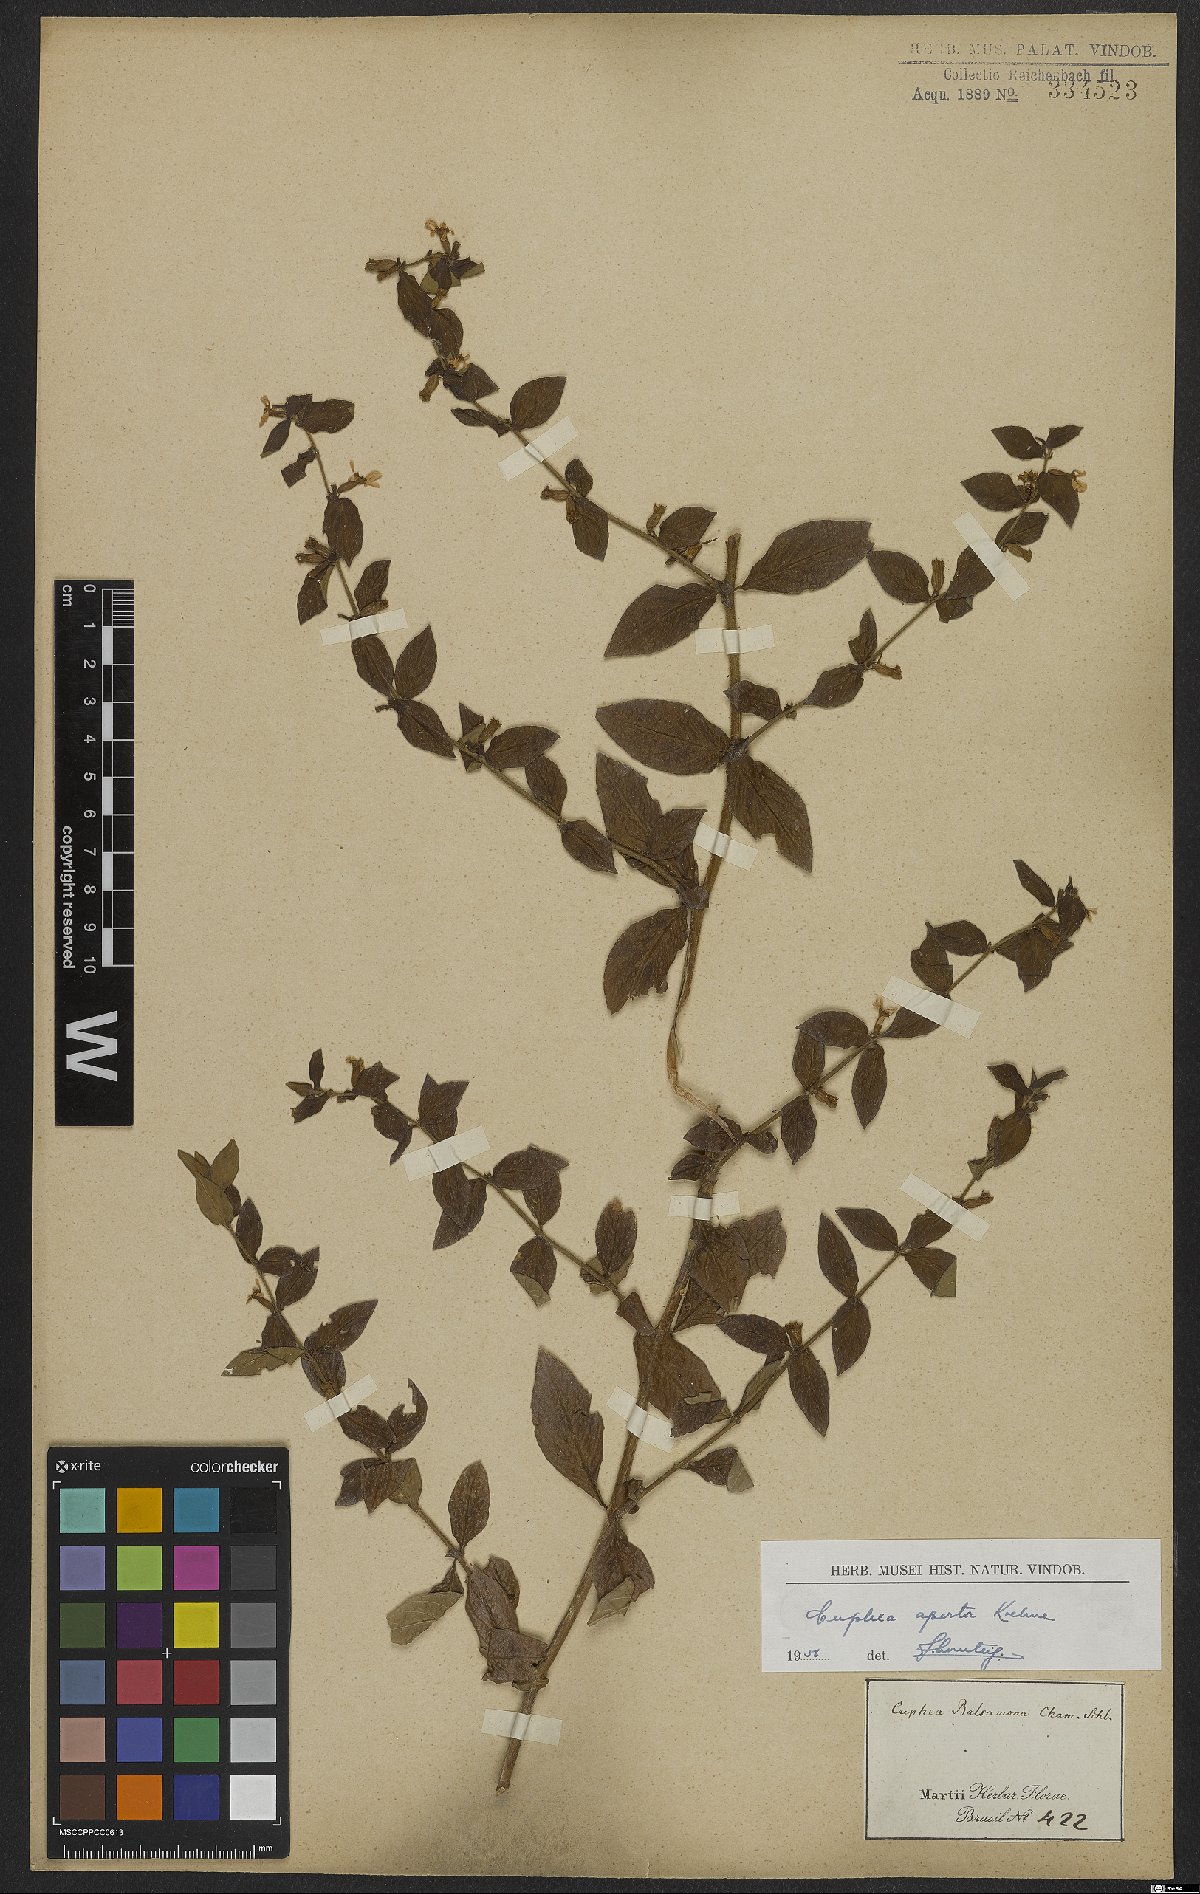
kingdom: Plantae
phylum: Tracheophyta
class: Magnoliopsida
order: Myrtales
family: Lythraceae
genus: Cuphea
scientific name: Cuphea aperta
